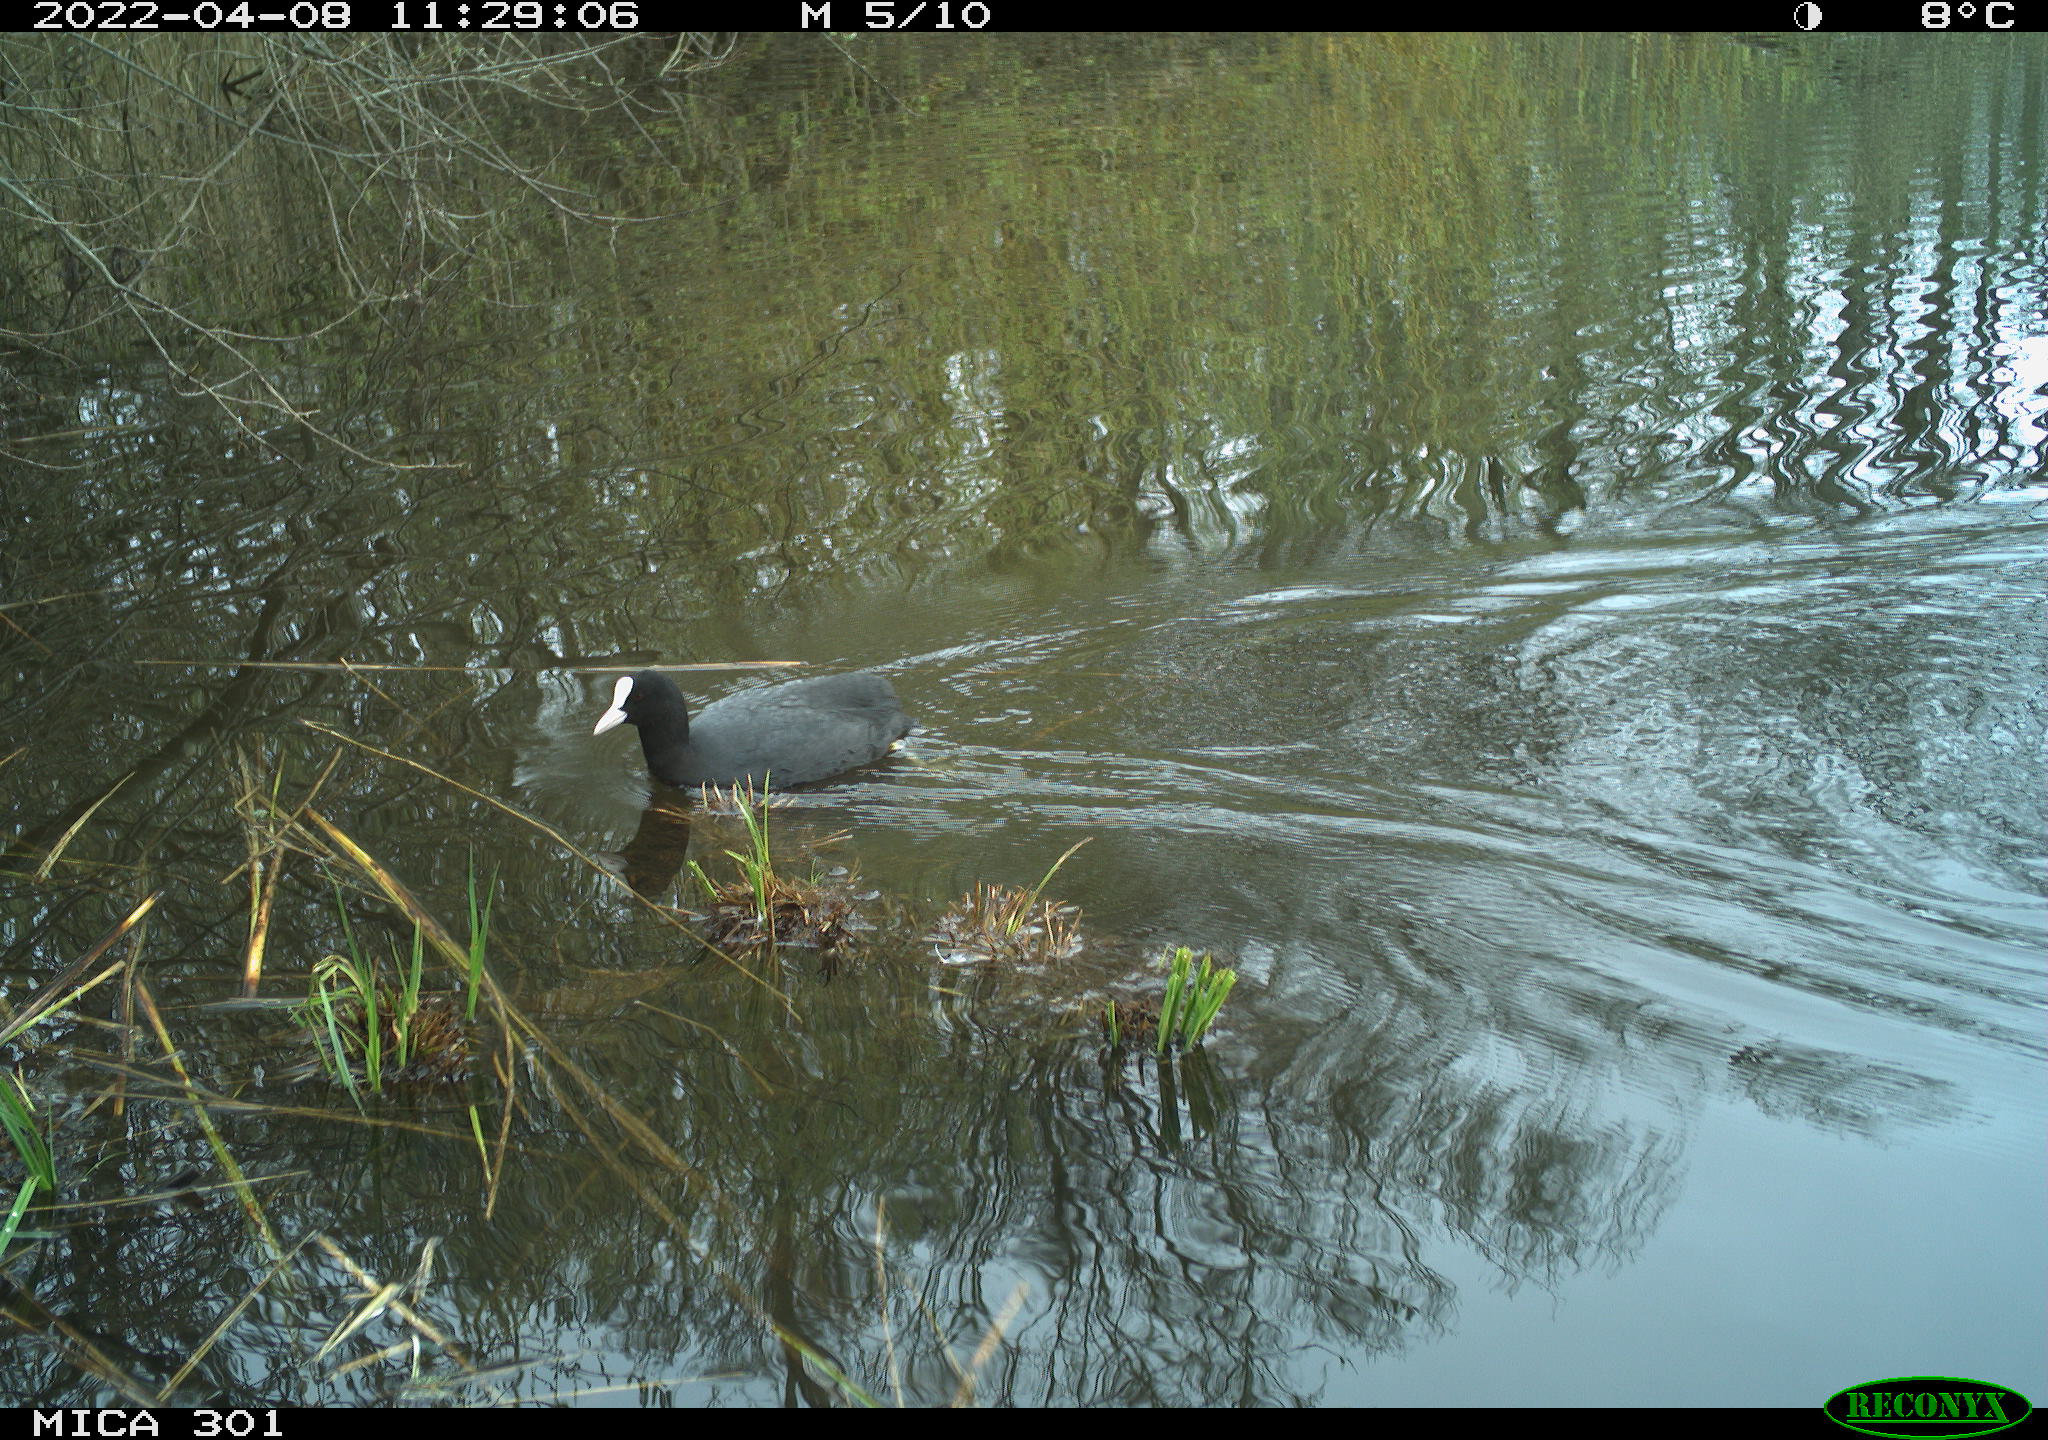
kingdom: Animalia
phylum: Chordata
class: Aves
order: Gruiformes
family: Rallidae
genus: Fulica
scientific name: Fulica atra
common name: Eurasian coot
